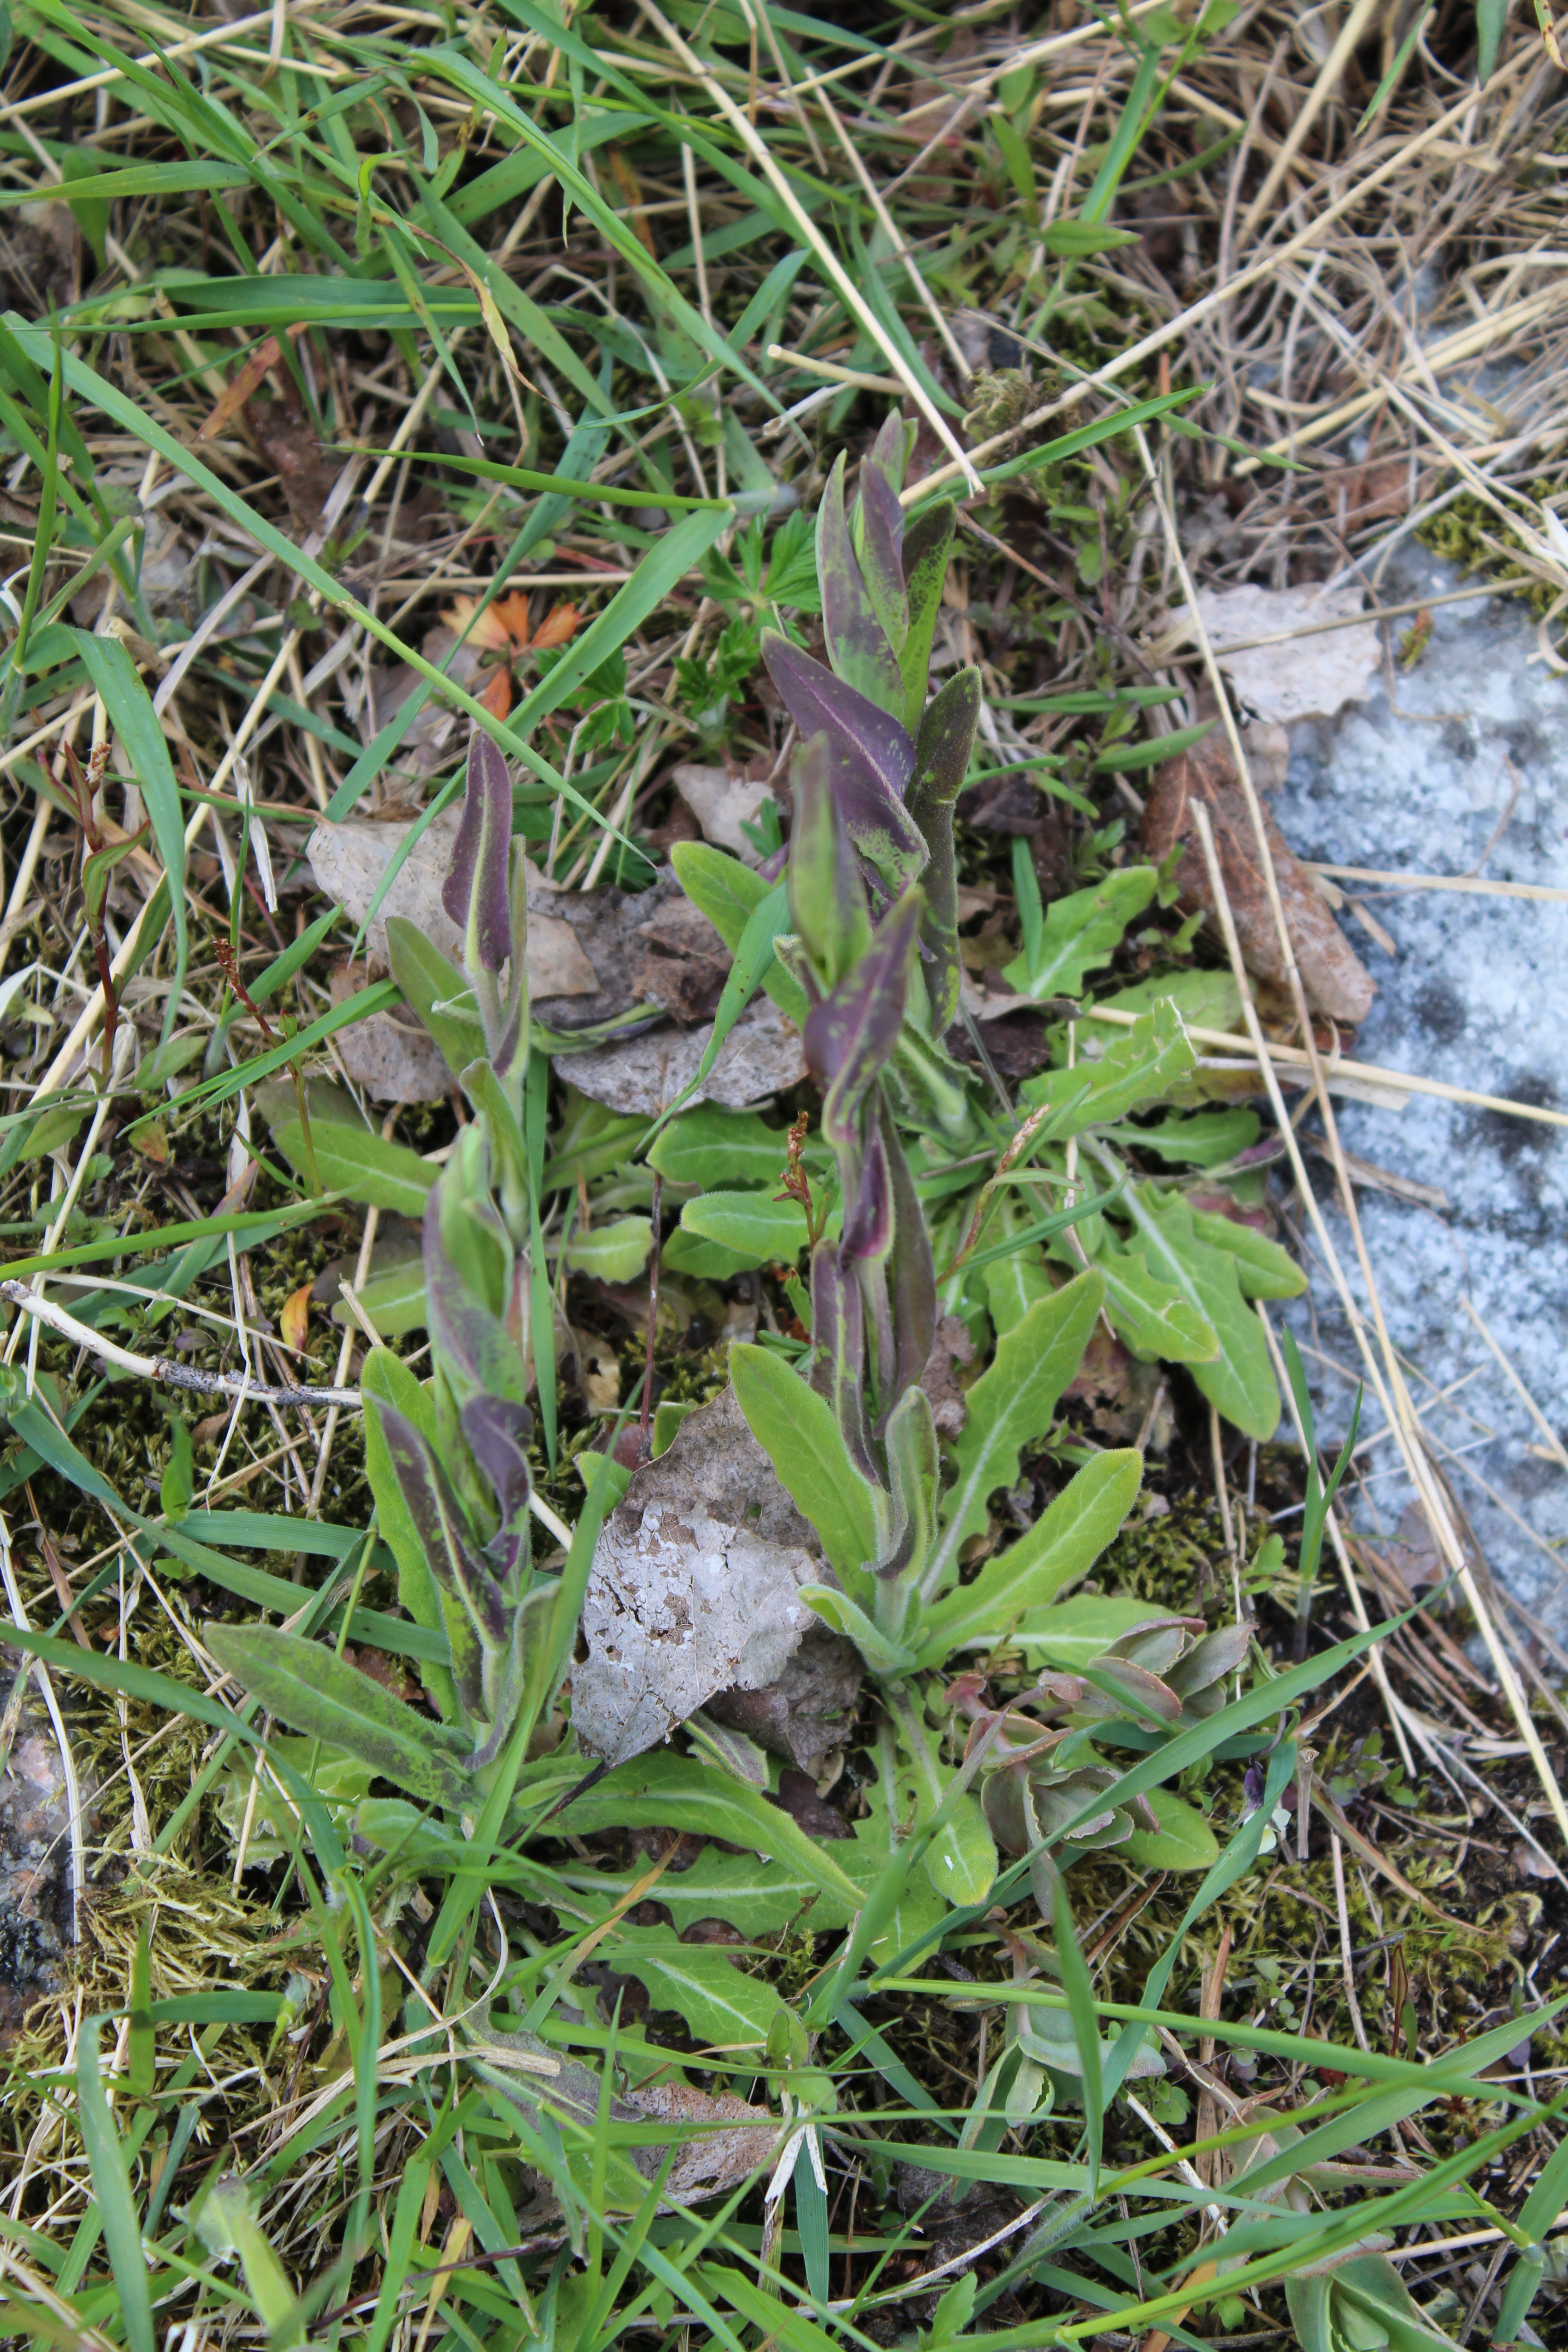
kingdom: Plantae
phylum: Tracheophyta
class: Magnoliopsida
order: Brassicales
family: Brassicaceae
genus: Turritis
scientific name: Turritis glabra
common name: Tower rockcress
